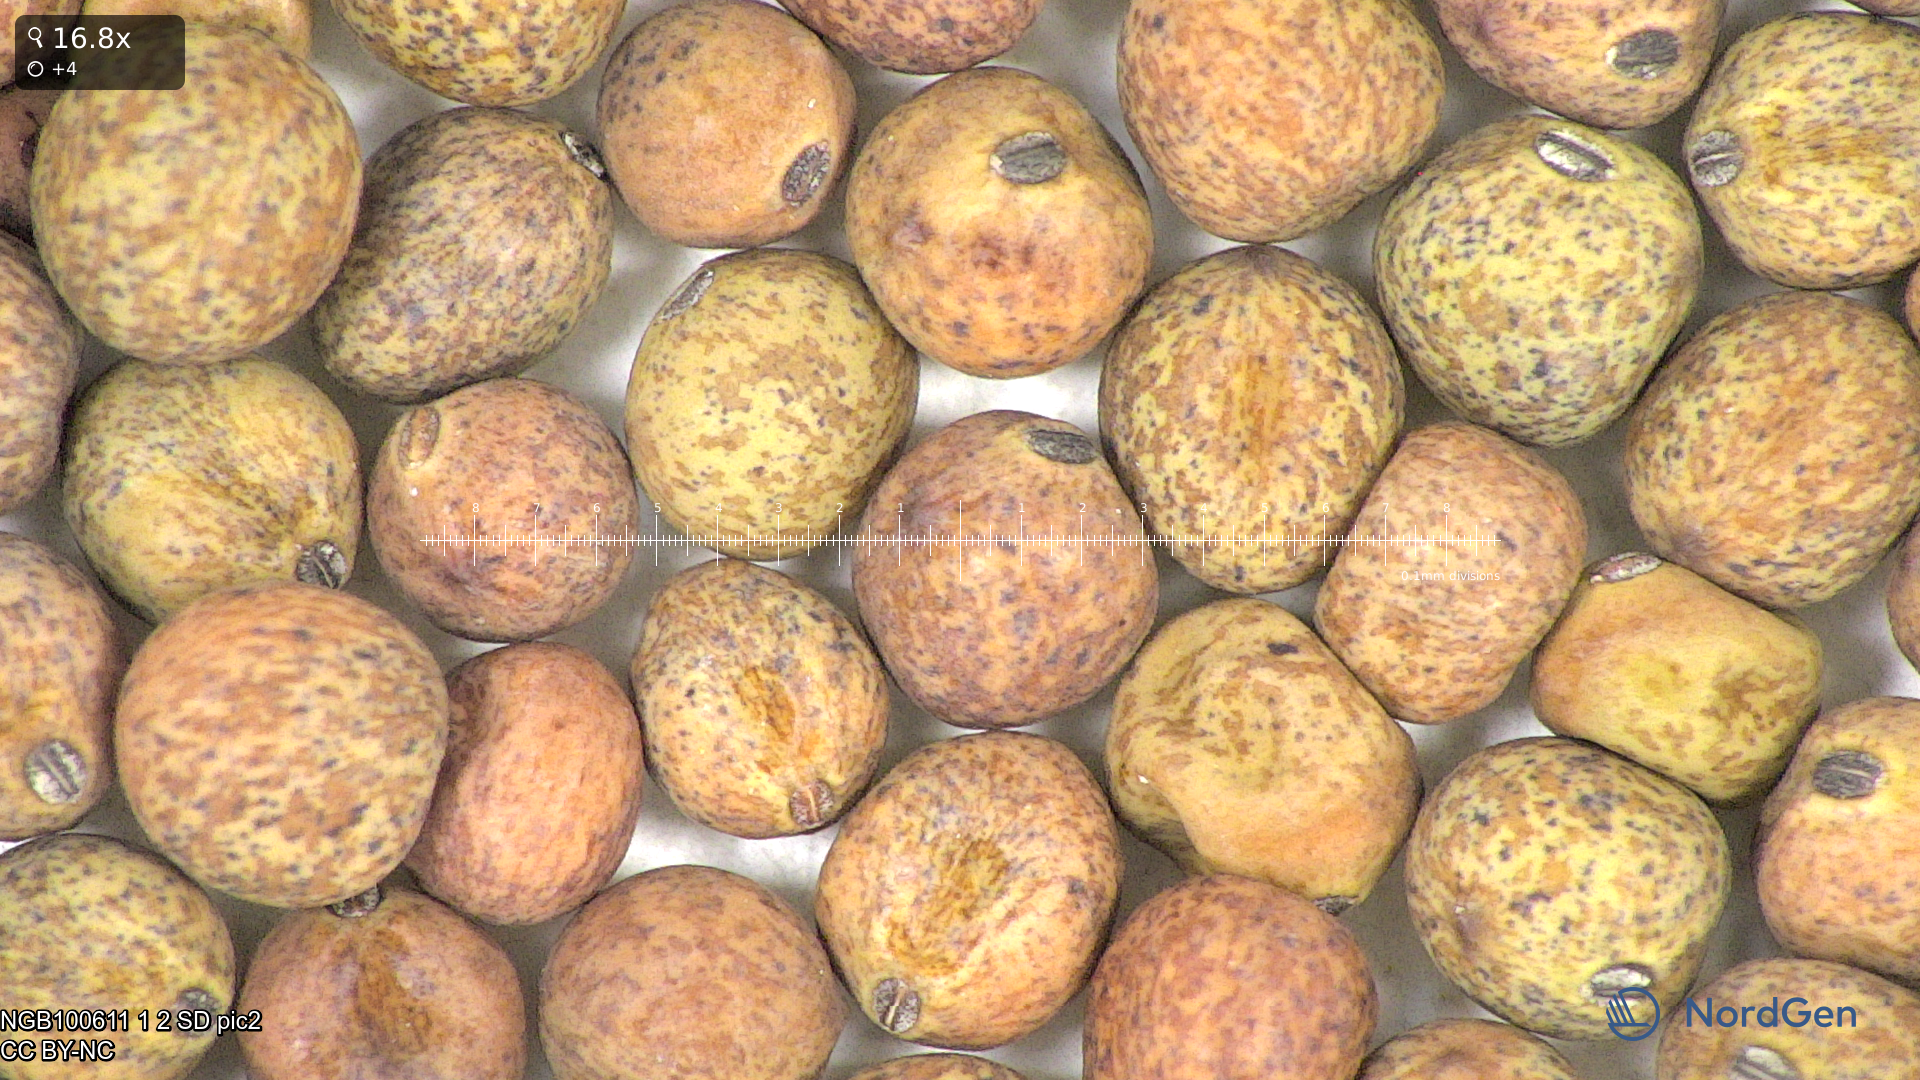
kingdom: Plantae
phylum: Tracheophyta
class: Magnoliopsida
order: Fabales
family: Fabaceae
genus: Lathyrus
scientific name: Lathyrus oleraceus
